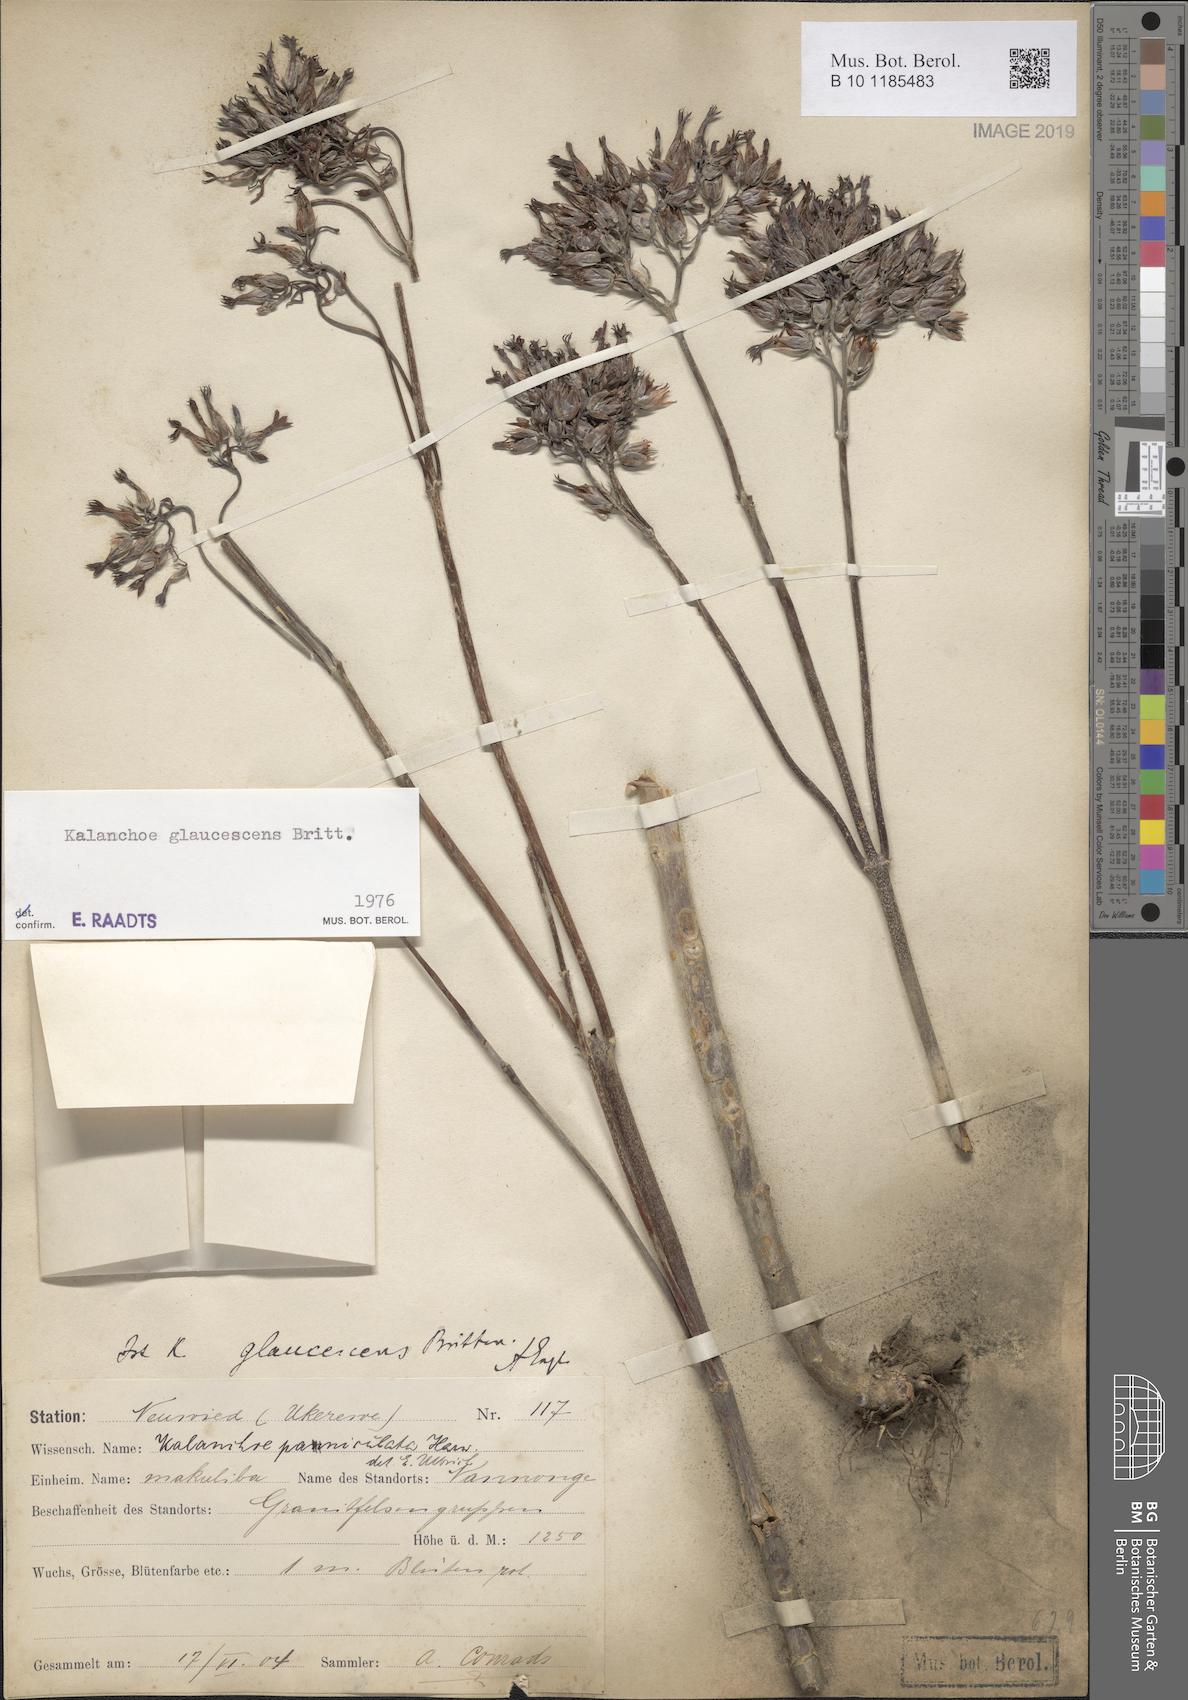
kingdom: Plantae
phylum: Tracheophyta
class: Magnoliopsida
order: Saxifragales
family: Crassulaceae
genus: Kalanchoe
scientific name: Kalanchoe glaucescens
